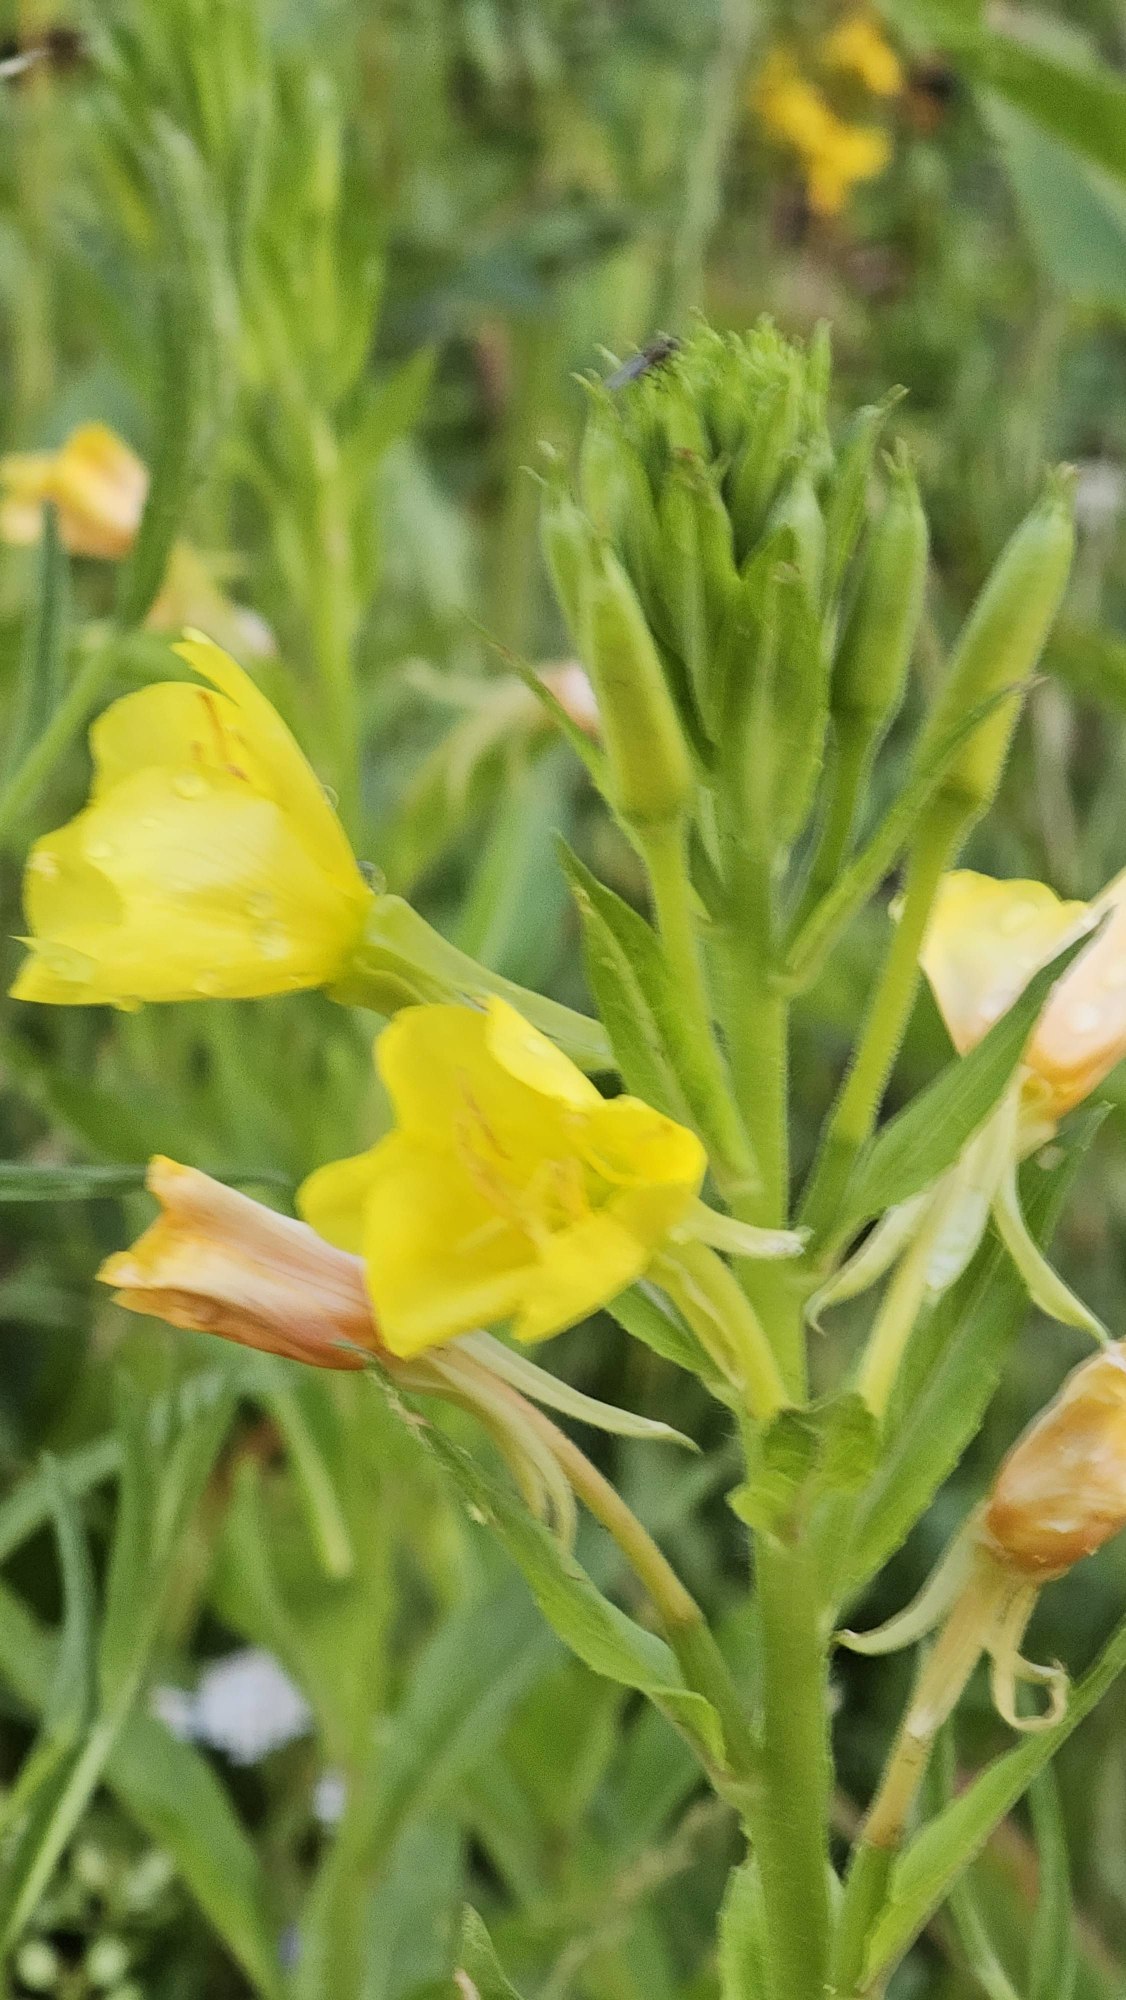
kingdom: Plantae
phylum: Tracheophyta
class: Magnoliopsida
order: Myrtales
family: Onagraceae
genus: Oenothera
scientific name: Oenothera biennis
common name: Toårig natlys
